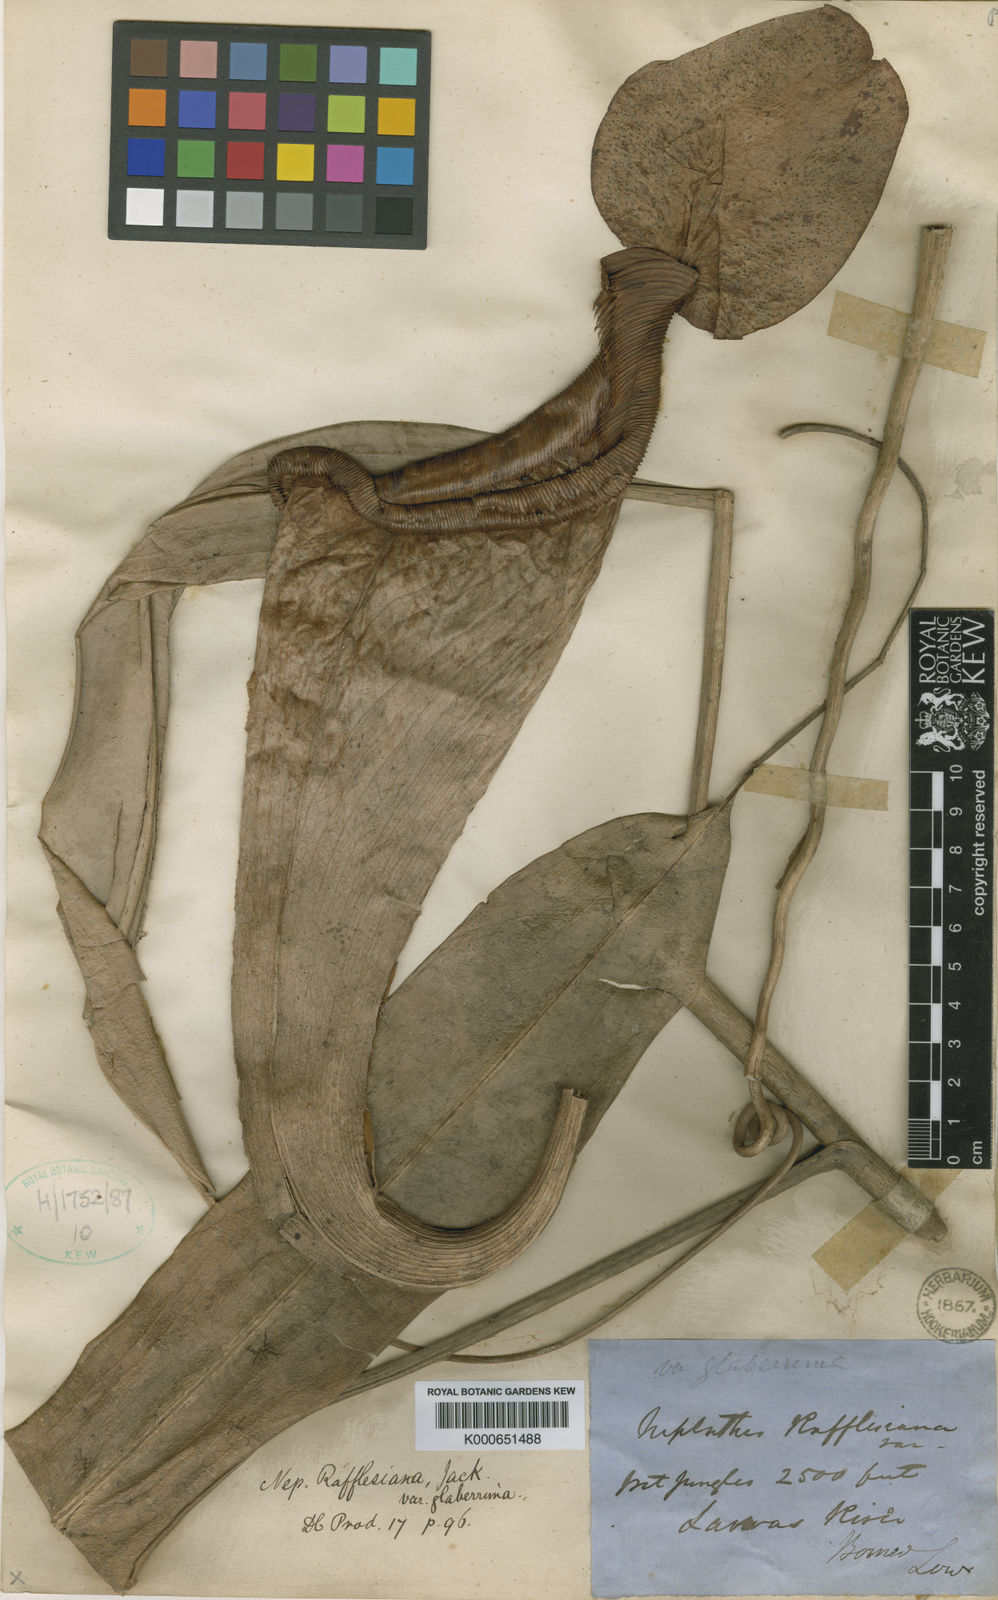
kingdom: Plantae
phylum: Tracheophyta
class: Magnoliopsida
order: Caryophyllales
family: Nepenthaceae
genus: Nepenthes
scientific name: Nepenthes rafflesiana
